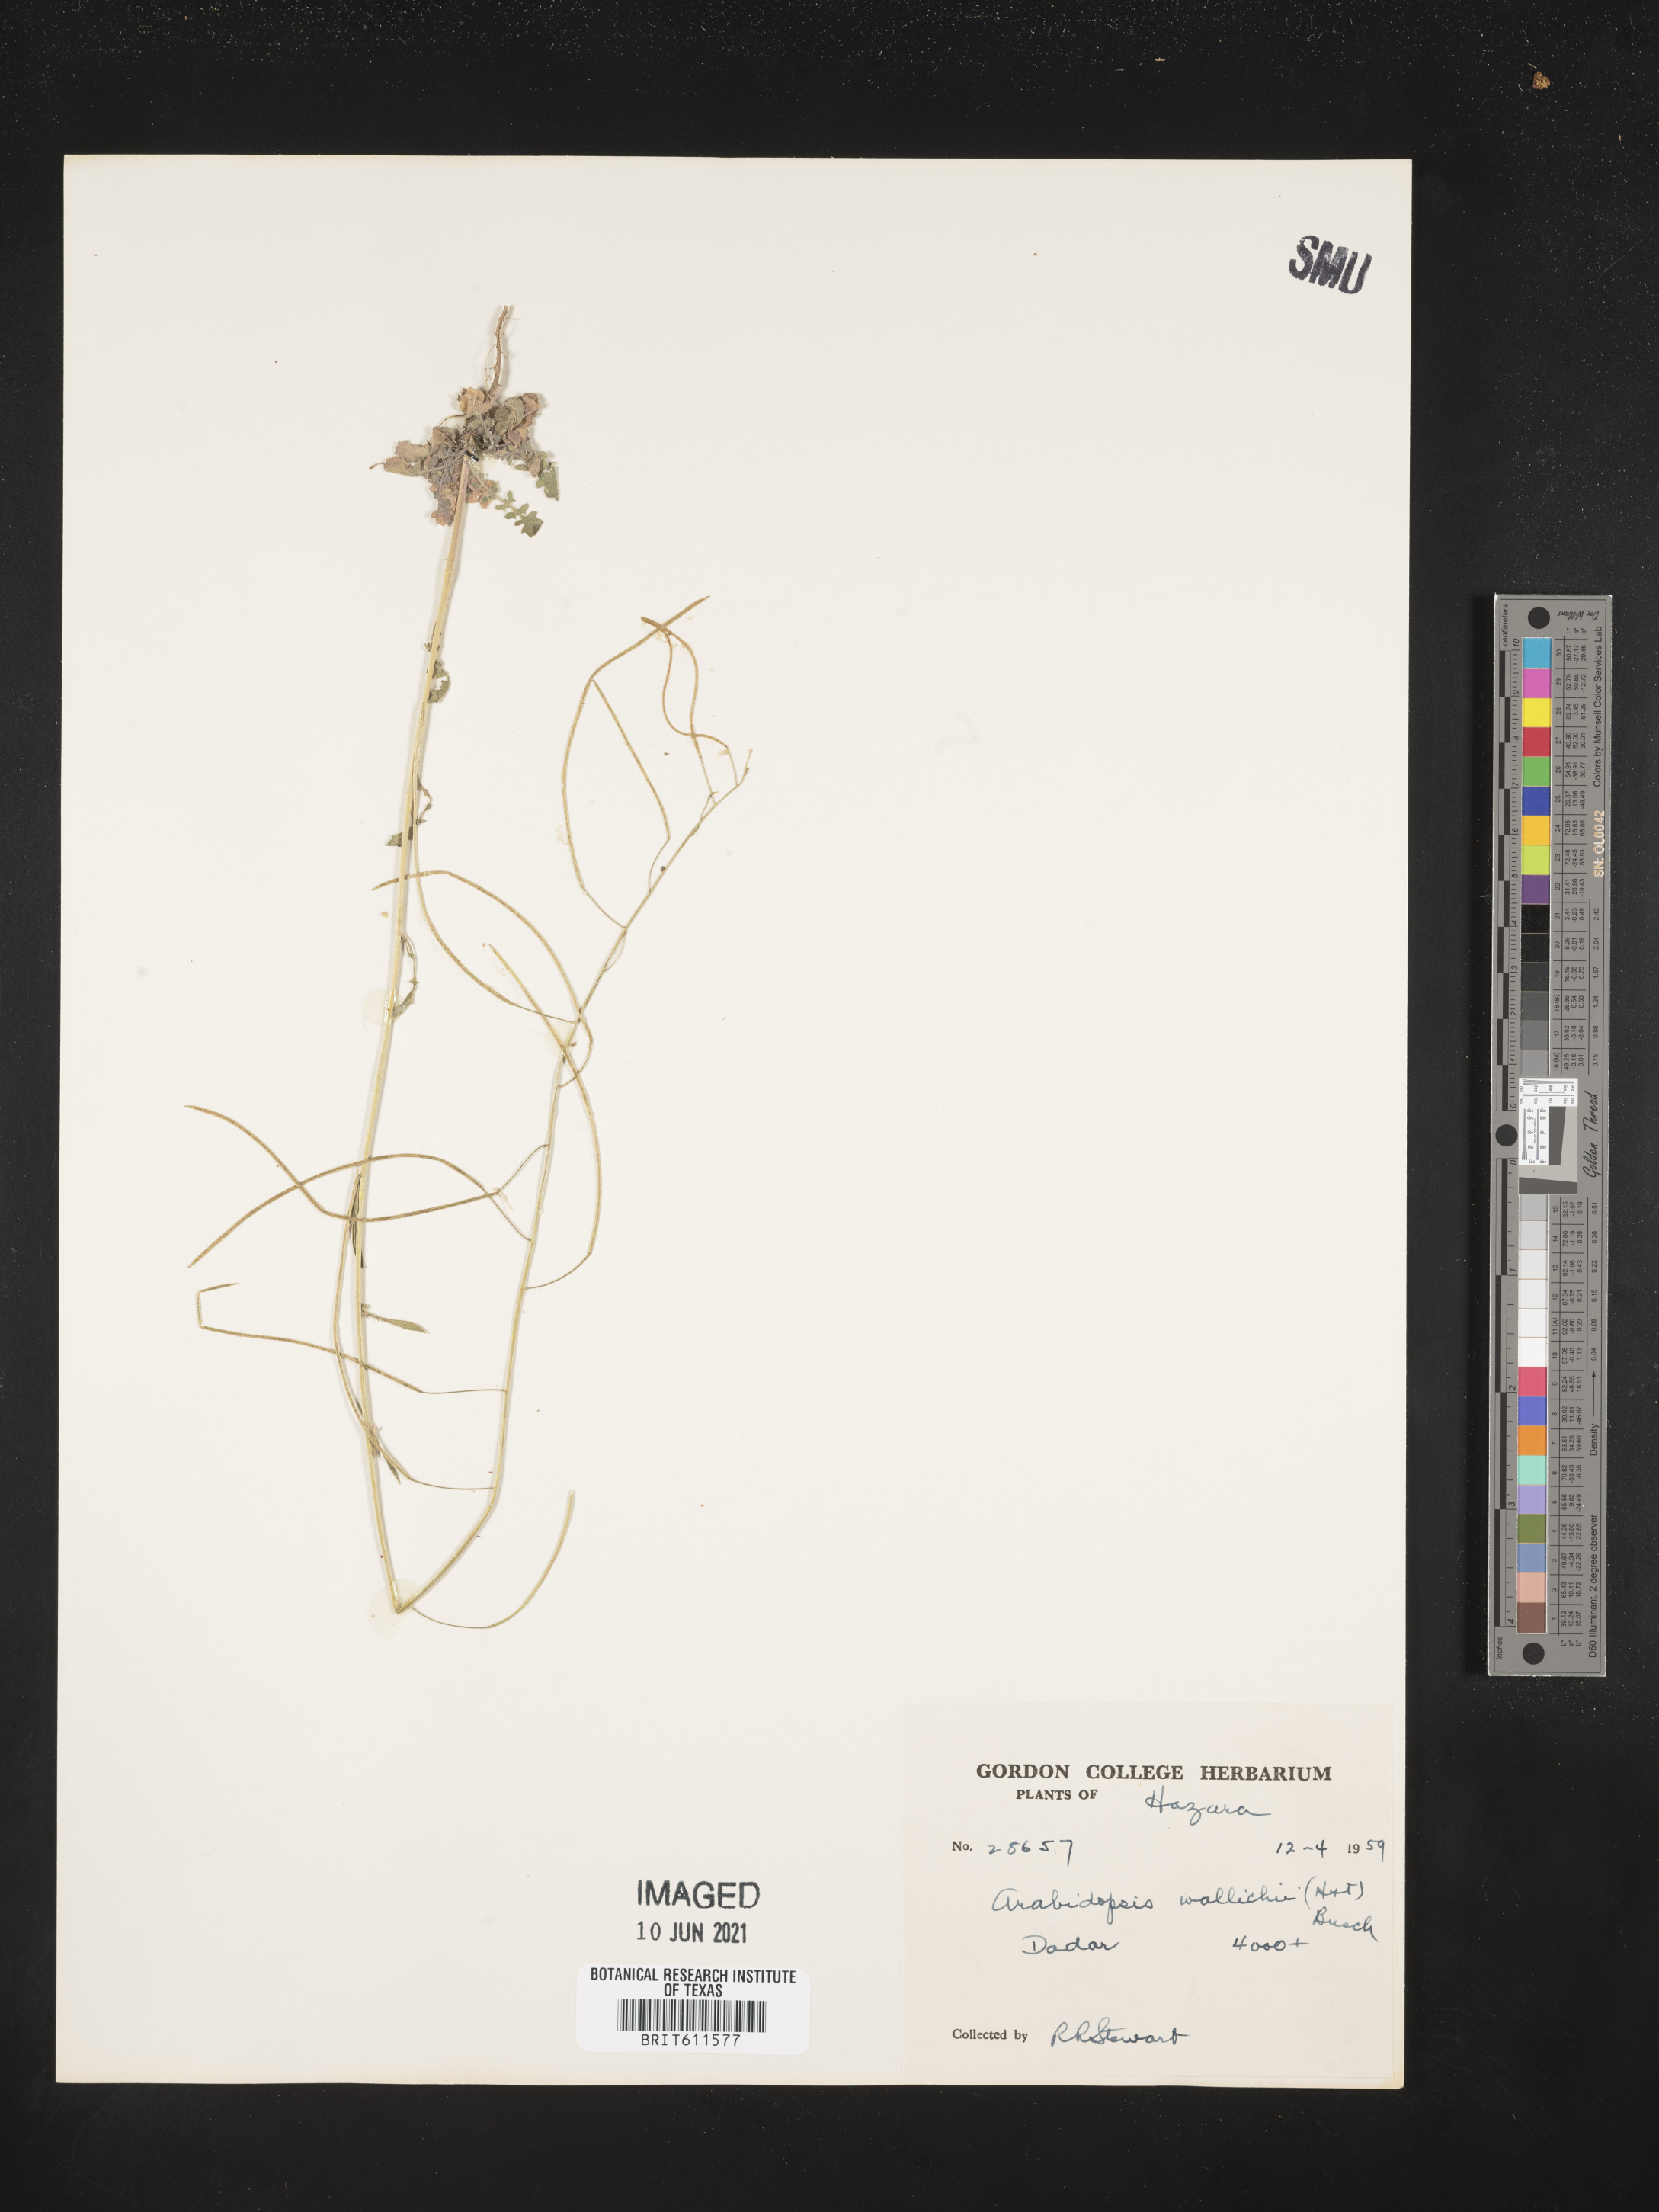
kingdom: Plantae
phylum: Tracheophyta
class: Magnoliopsida
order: Brassicales
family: Brassicaceae
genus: Crucihimalaya
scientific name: Crucihimalaya wallichii
